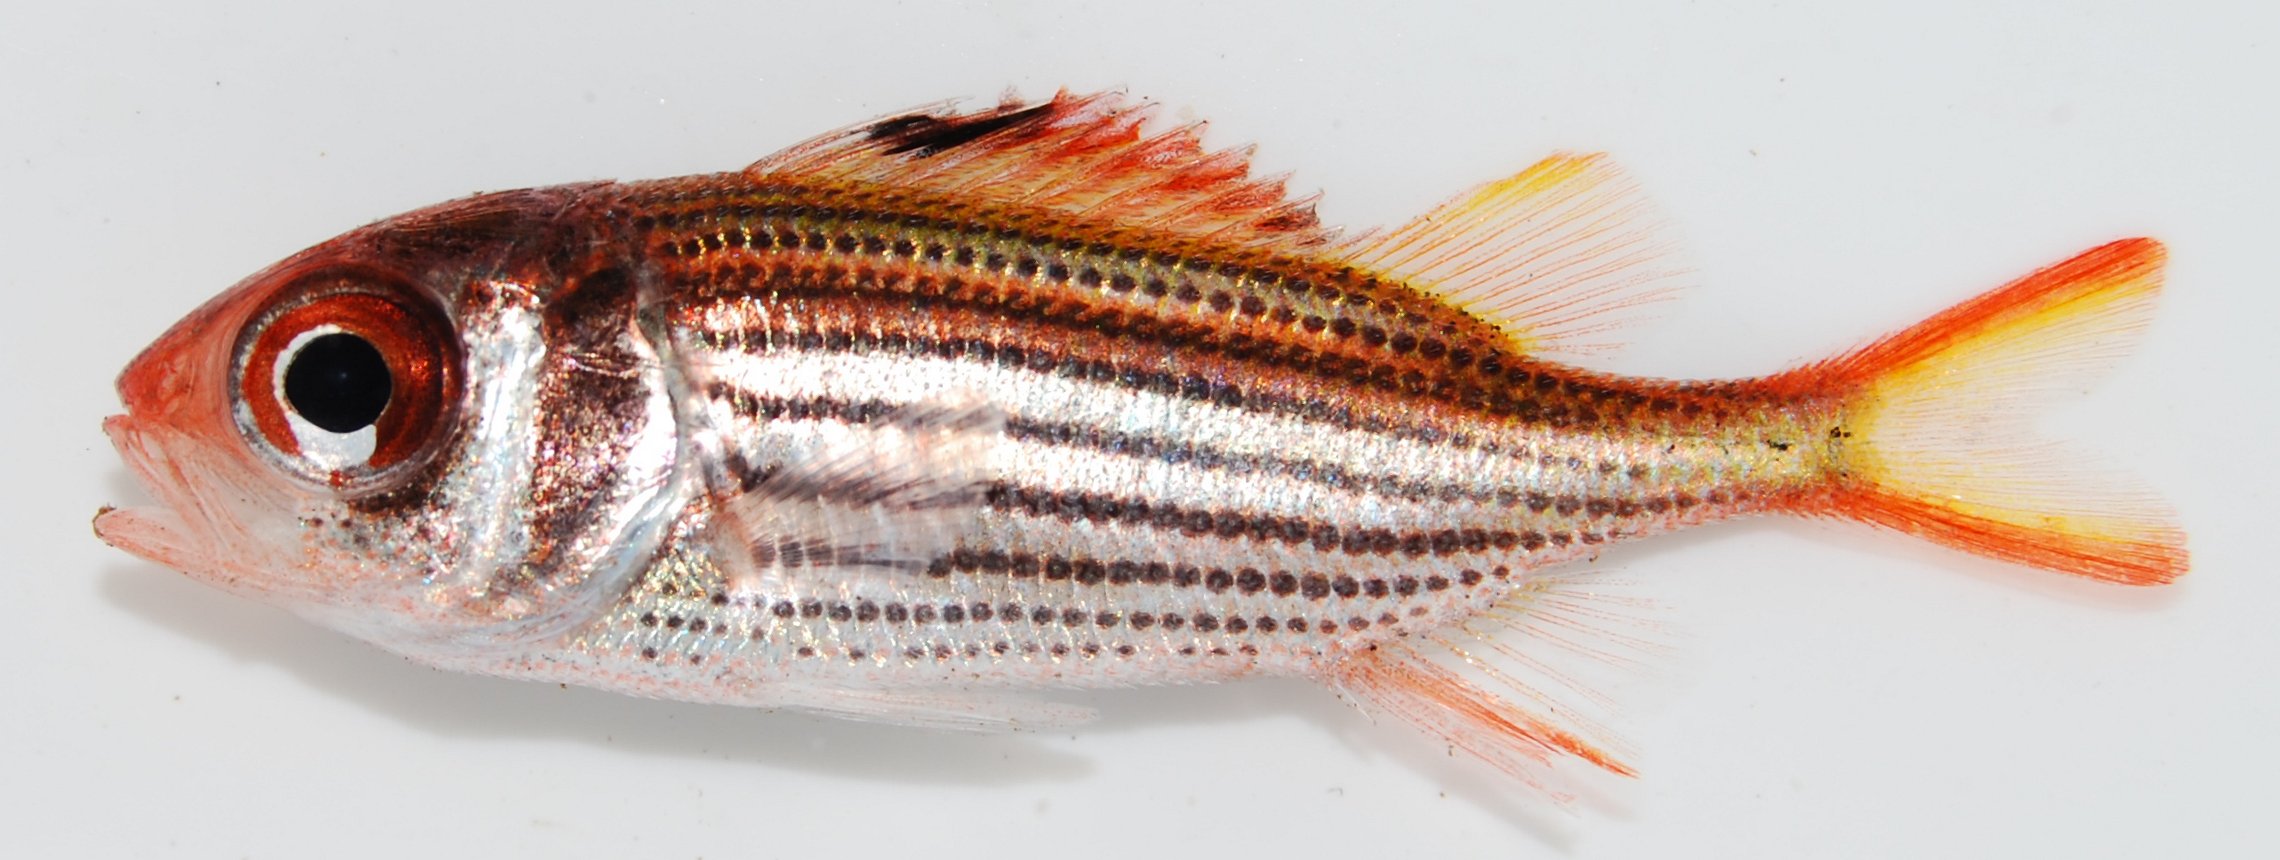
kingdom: Animalia
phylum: Chordata
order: Beryciformes
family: Holocentridae
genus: Sargocentron
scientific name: Sargocentron
